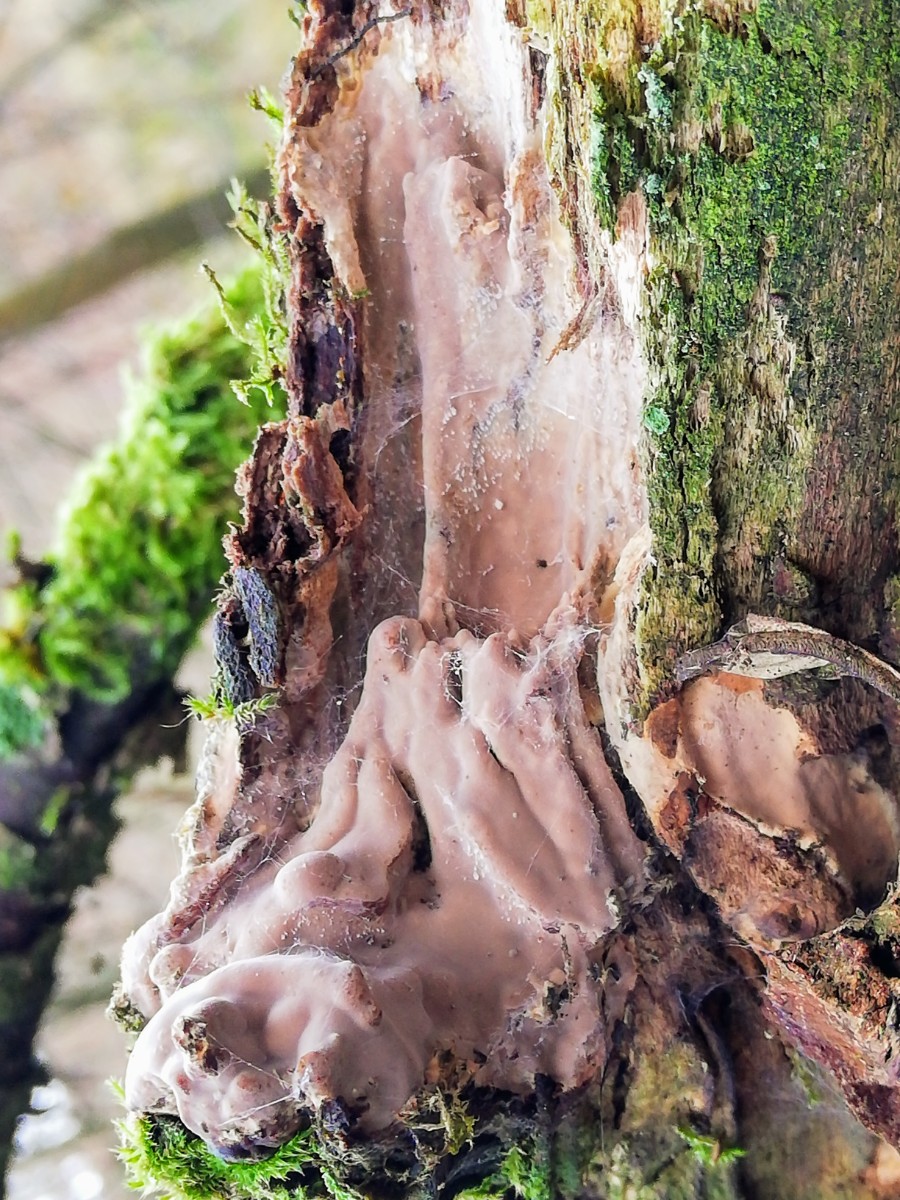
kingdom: Fungi
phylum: Basidiomycota
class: Agaricomycetes
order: Russulales
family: Peniophoraceae
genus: Scytinostroma
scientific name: Scytinostroma hemidichophyticum
